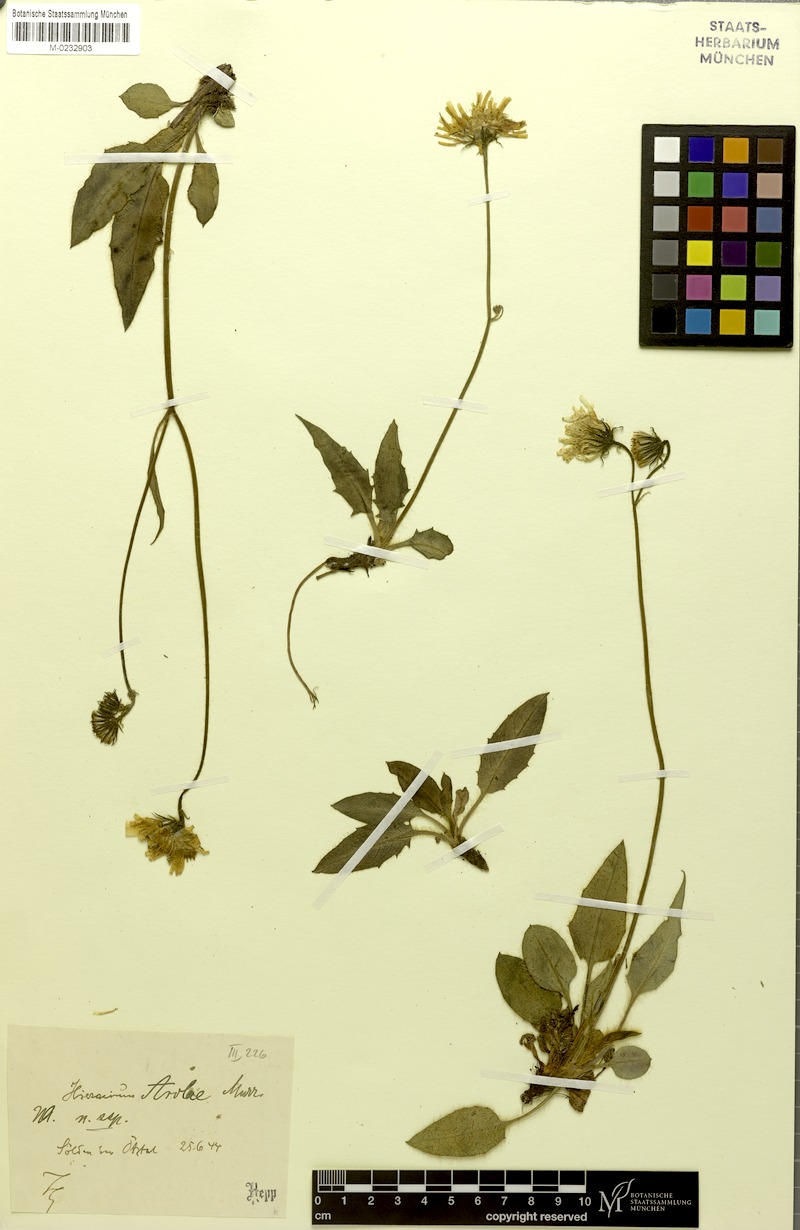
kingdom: Plantae
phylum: Tracheophyta
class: Magnoliopsida
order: Asterales
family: Asteraceae
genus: Hieracium
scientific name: Hieracium arolae
